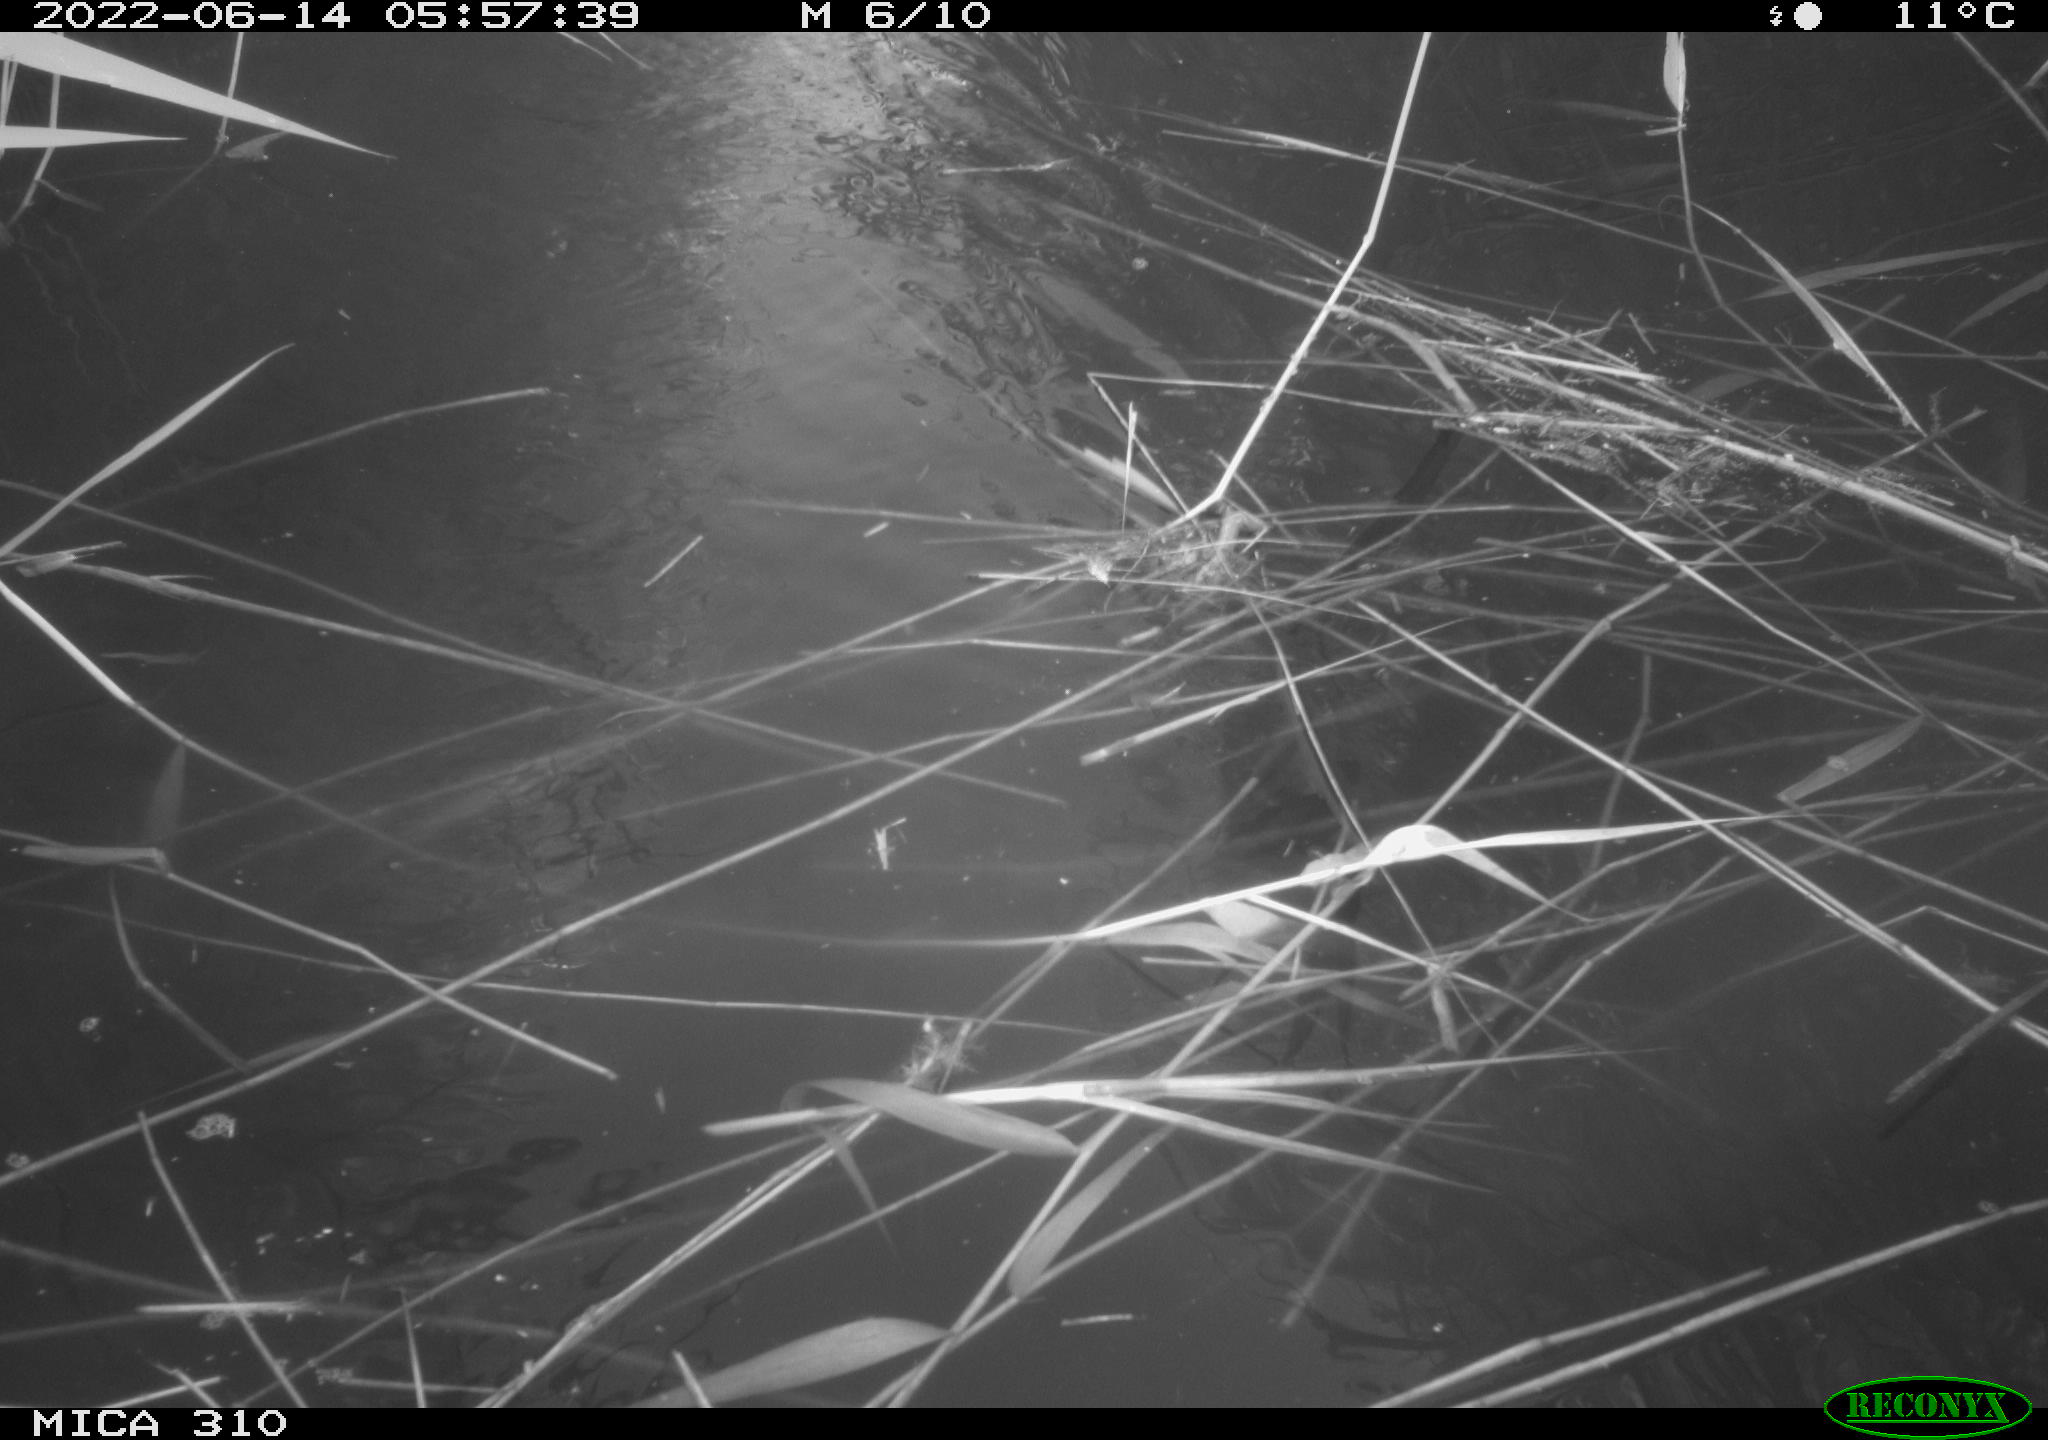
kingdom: Animalia
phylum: Chordata
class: Aves
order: Anseriformes
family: Anatidae
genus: Anas
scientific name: Anas platyrhynchos
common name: Mallard
